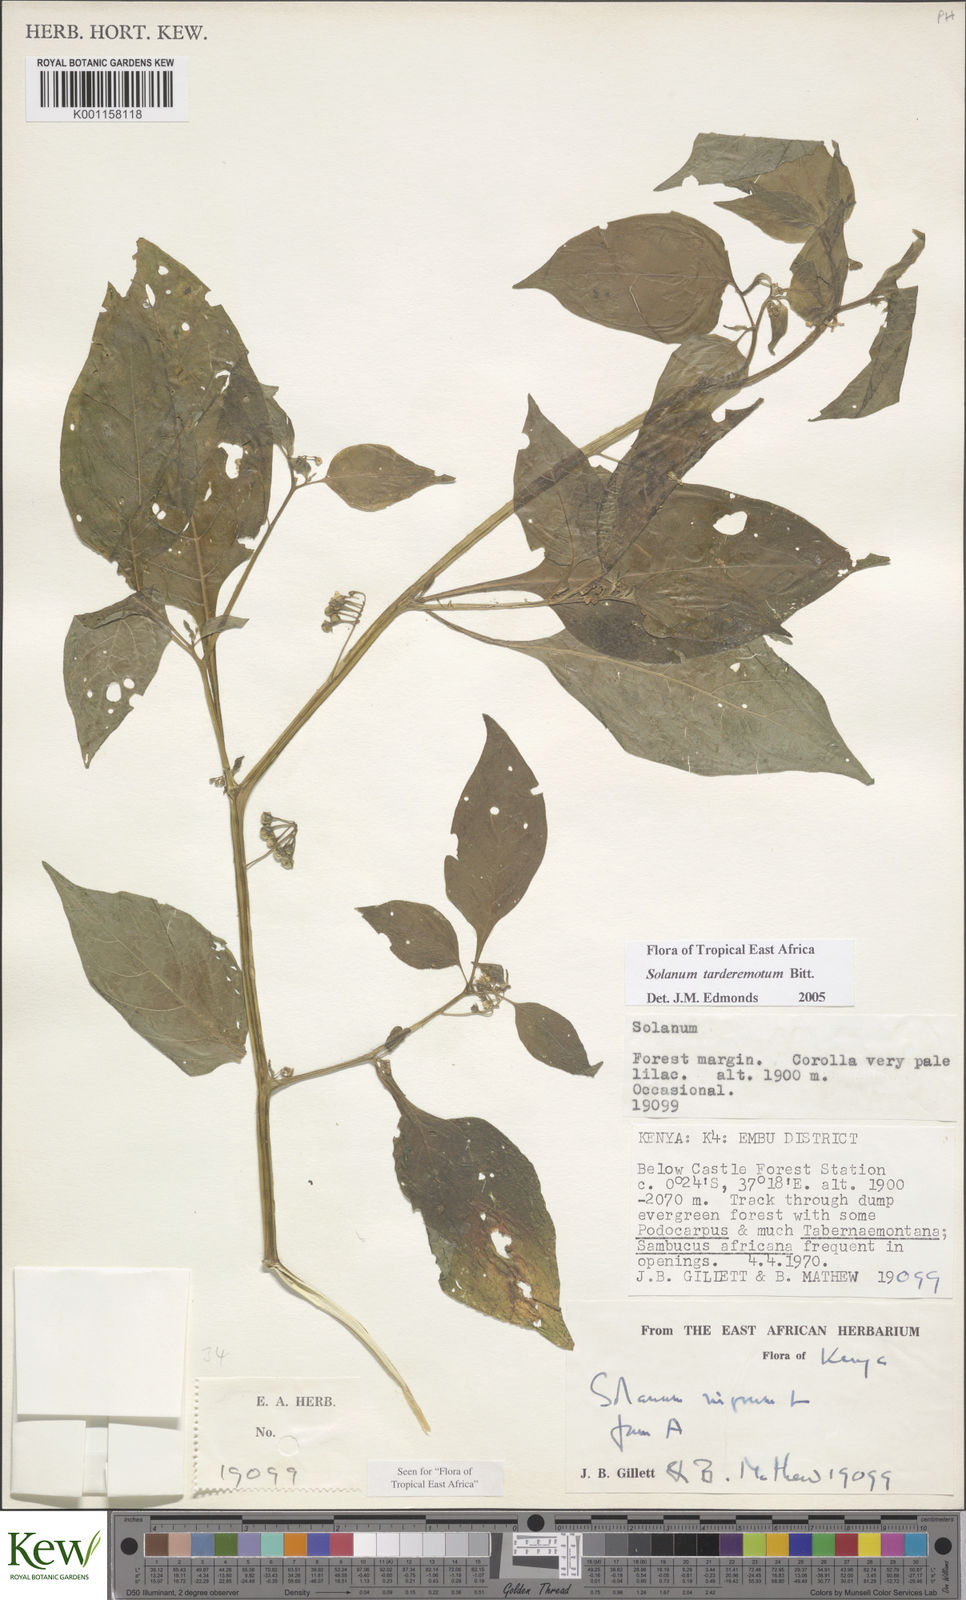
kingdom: Plantae
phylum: Tracheophyta
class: Magnoliopsida
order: Solanales
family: Solanaceae
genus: Solanum
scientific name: Solanum tarderemotum
